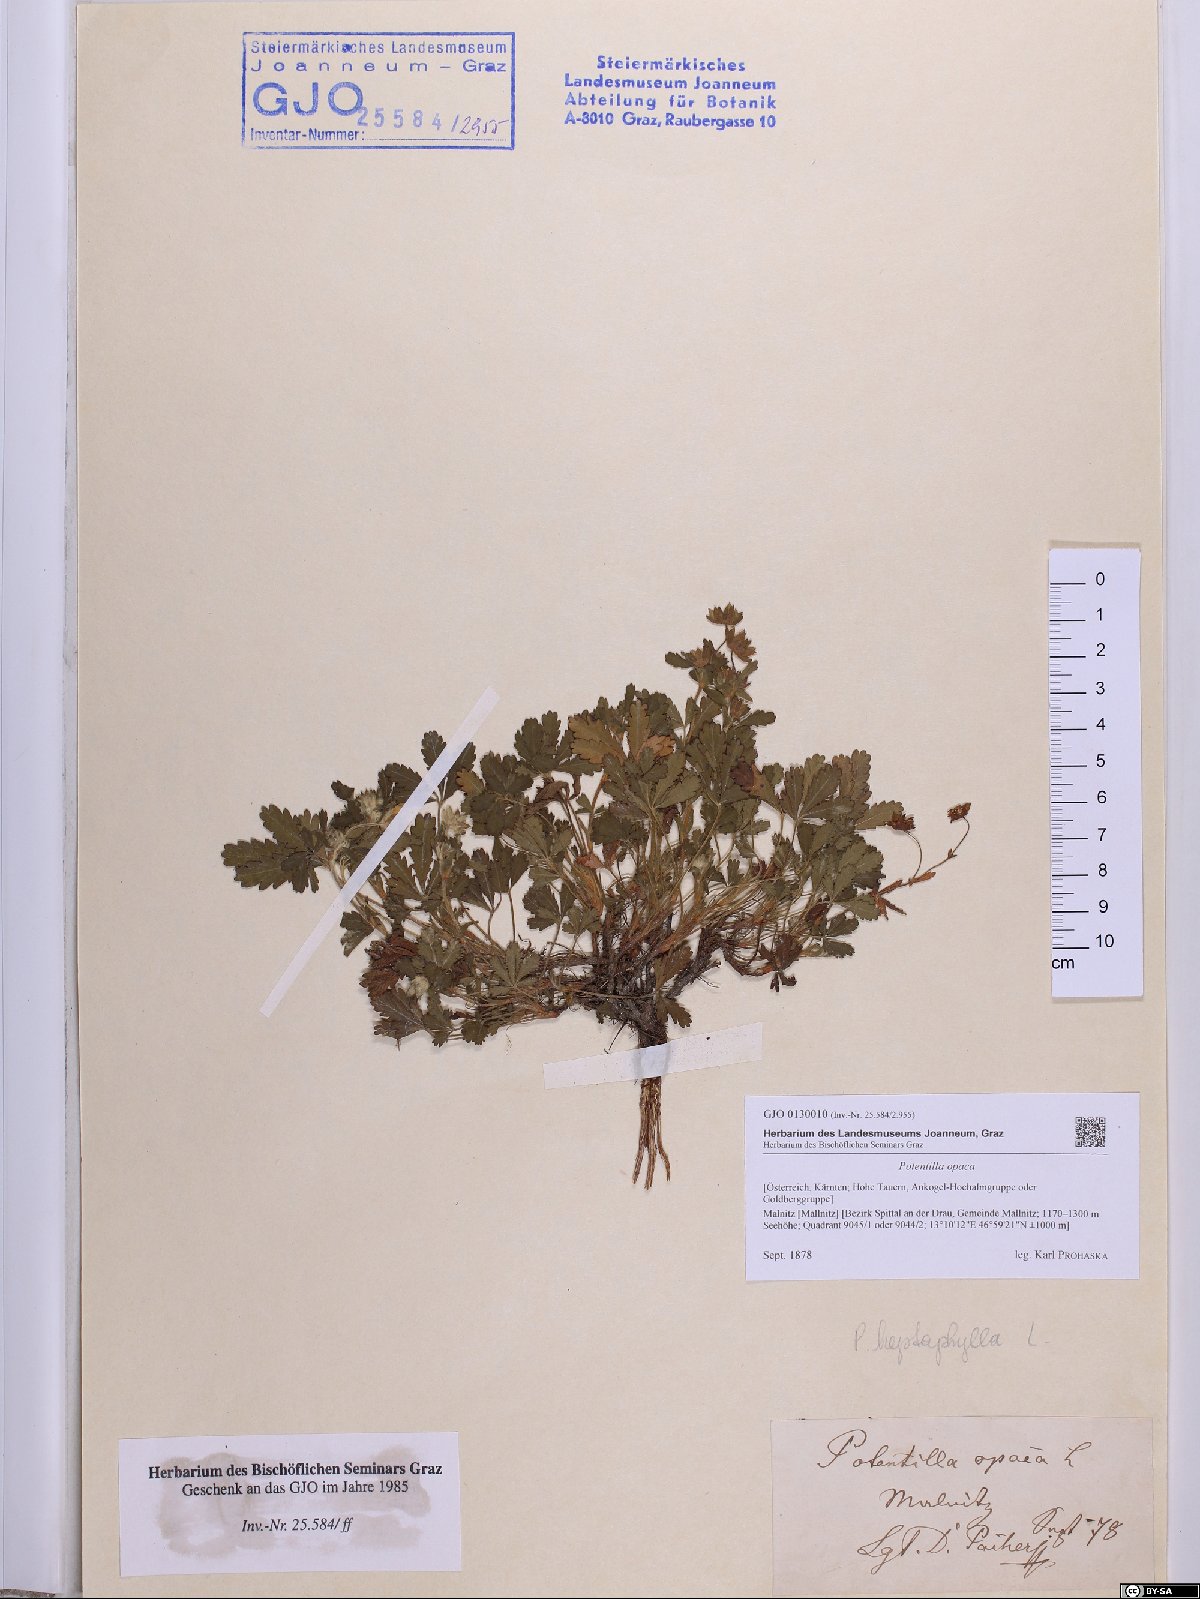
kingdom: Plantae
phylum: Tracheophyta
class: Magnoliopsida
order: Rosales
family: Rosaceae
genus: Potentilla
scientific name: Potentilla
